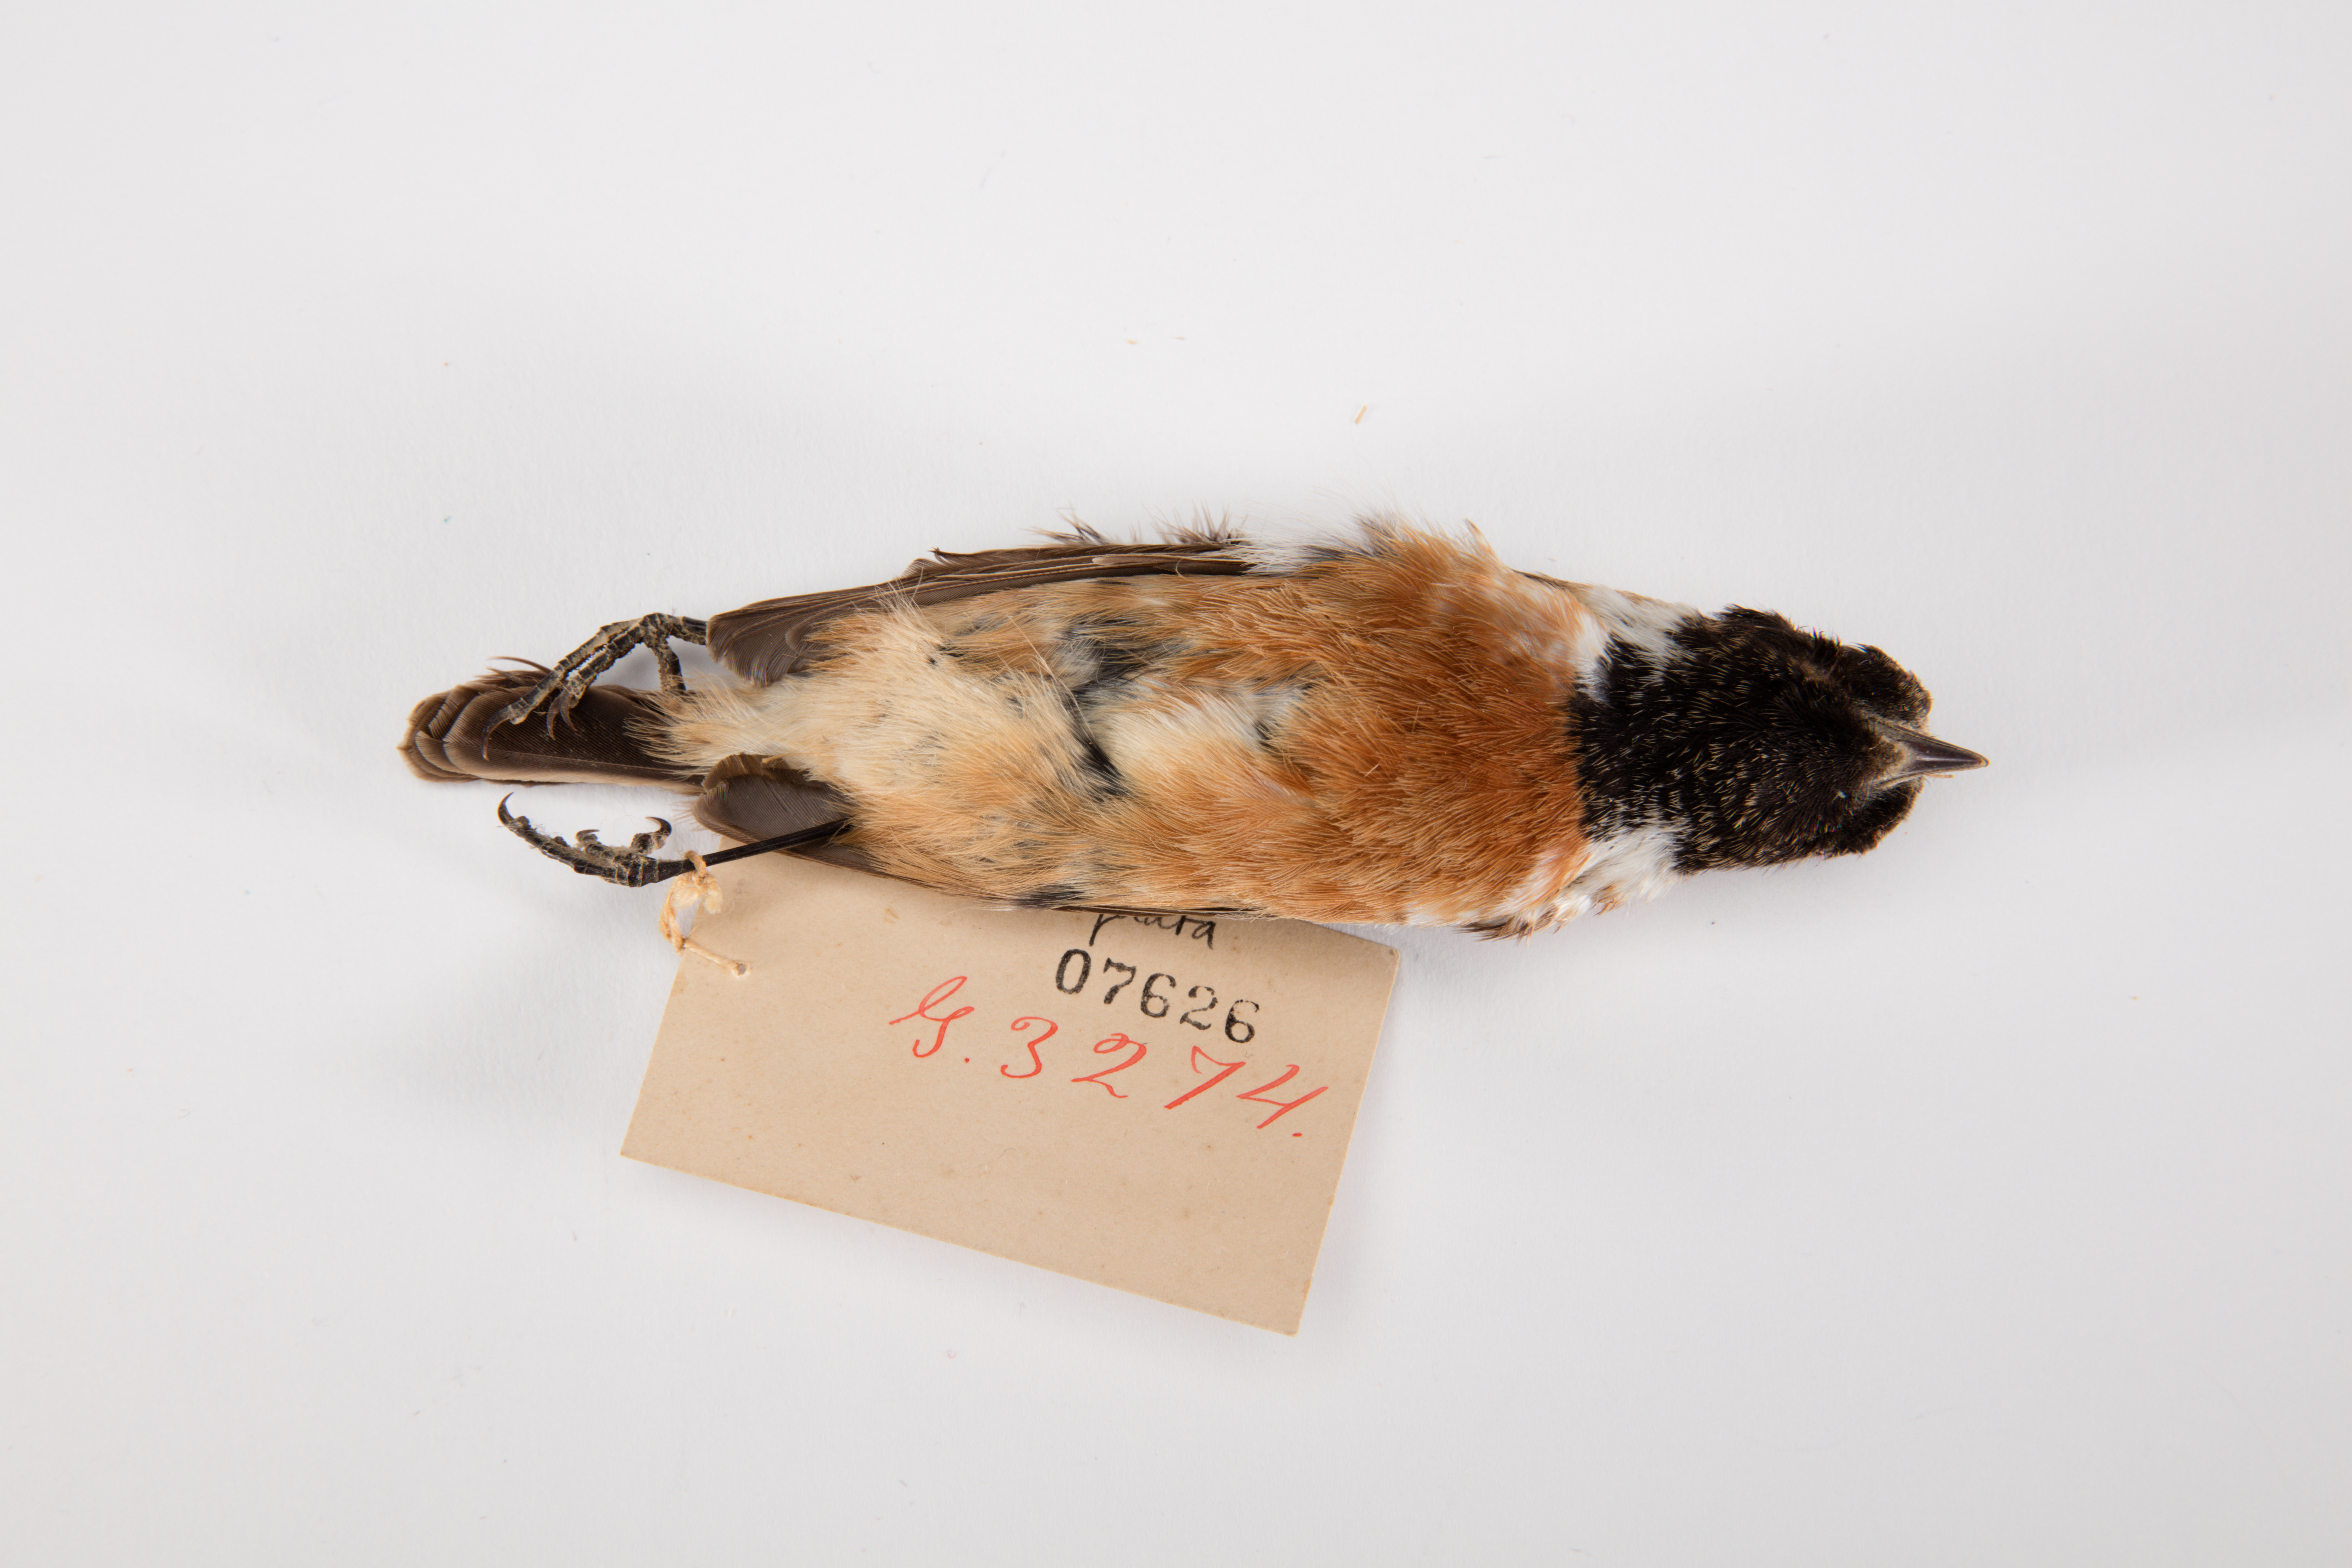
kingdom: Animalia
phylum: Chordata
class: Aves
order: Passeriformes
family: Muscicapidae
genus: Saxicola
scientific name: Saxicola torquatus
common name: African stonechat
